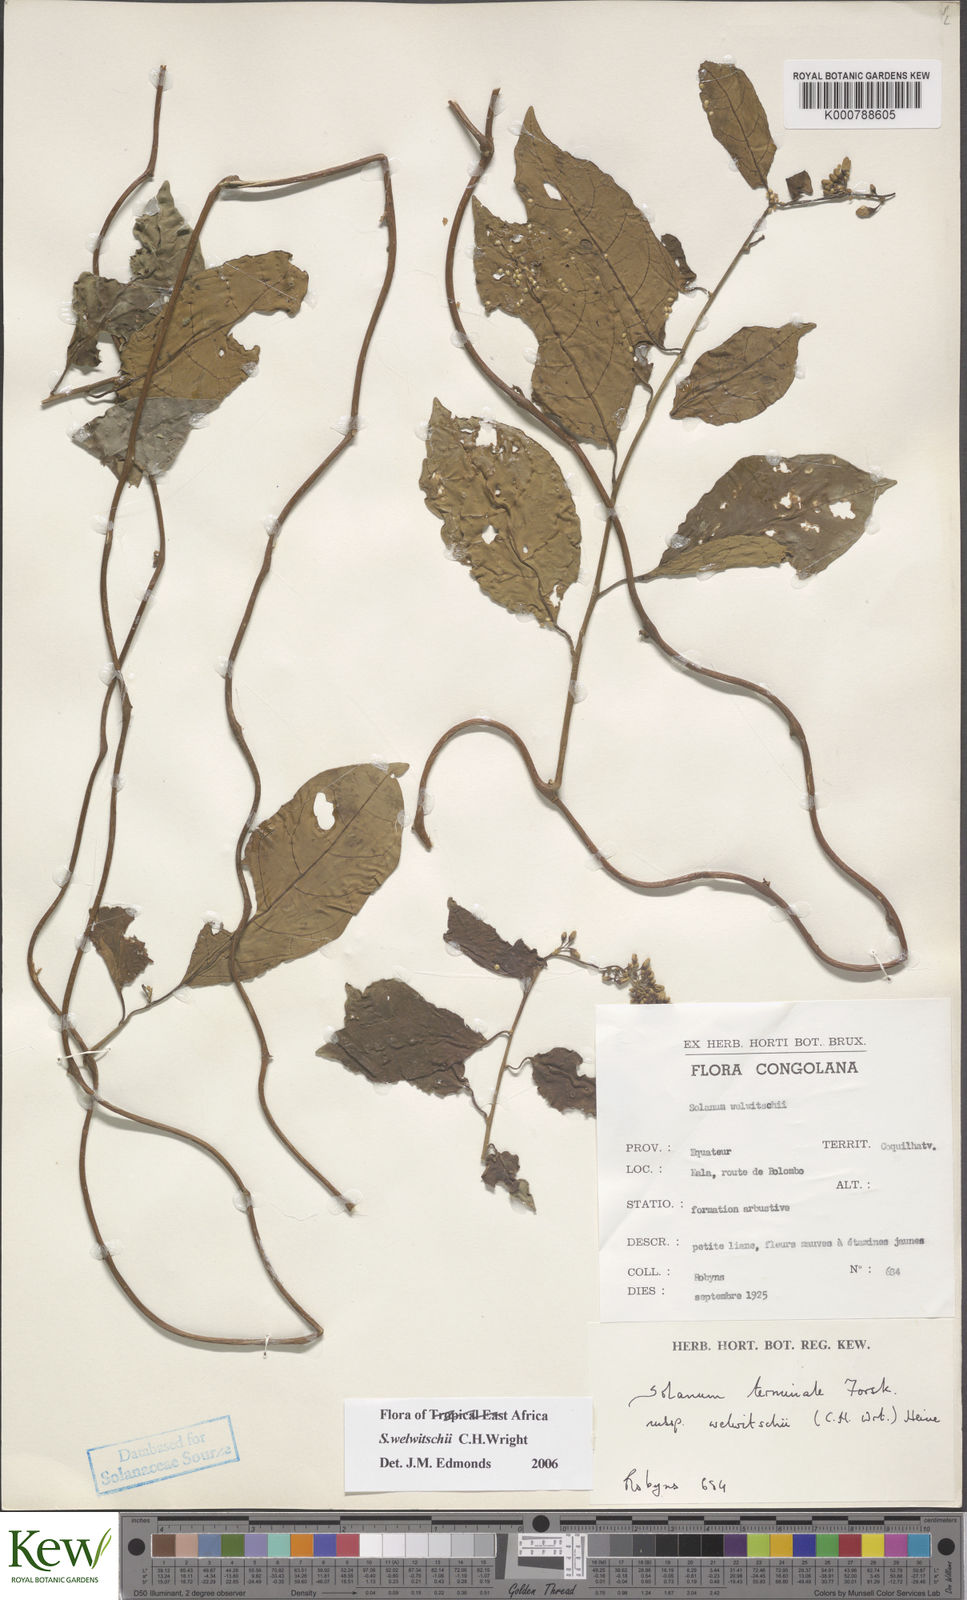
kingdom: Plantae
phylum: Tracheophyta
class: Magnoliopsida
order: Solanales
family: Solanaceae
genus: Solanum
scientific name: Solanum terminale
